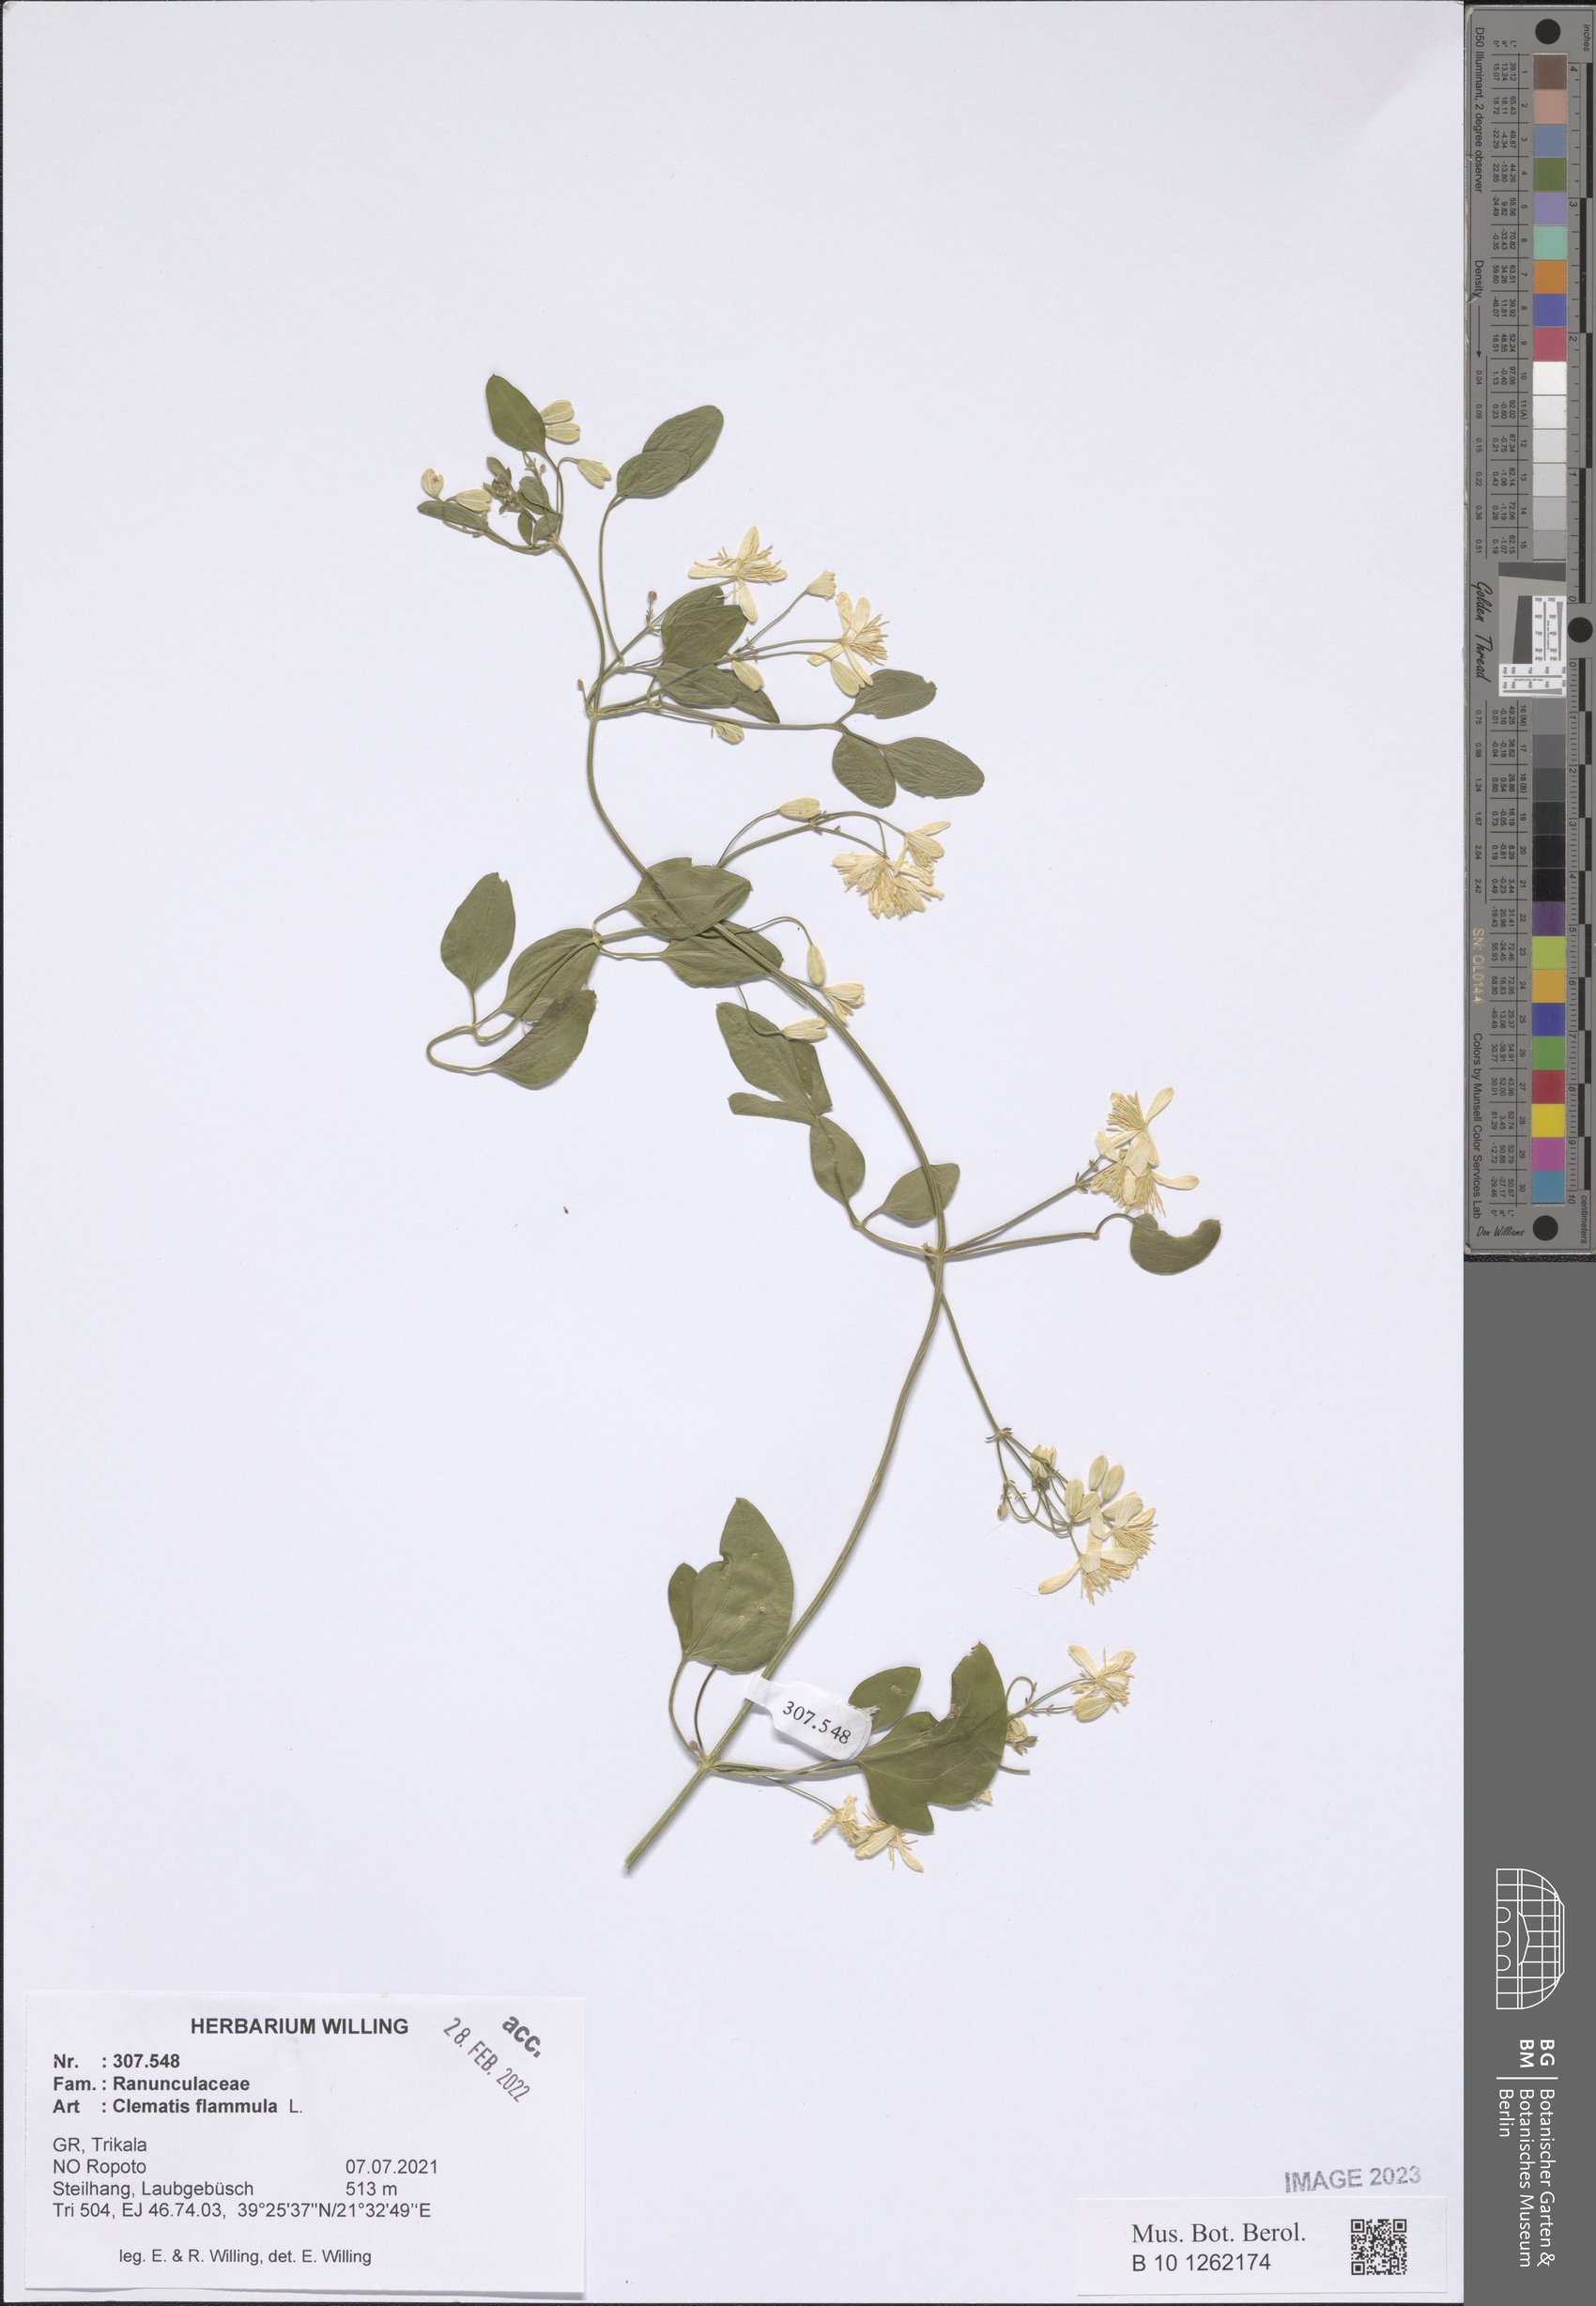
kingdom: Plantae
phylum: Tracheophyta
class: Magnoliopsida
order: Ranunculales
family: Ranunculaceae
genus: Clematis
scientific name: Clematis flammula
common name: Virgin's-bower
